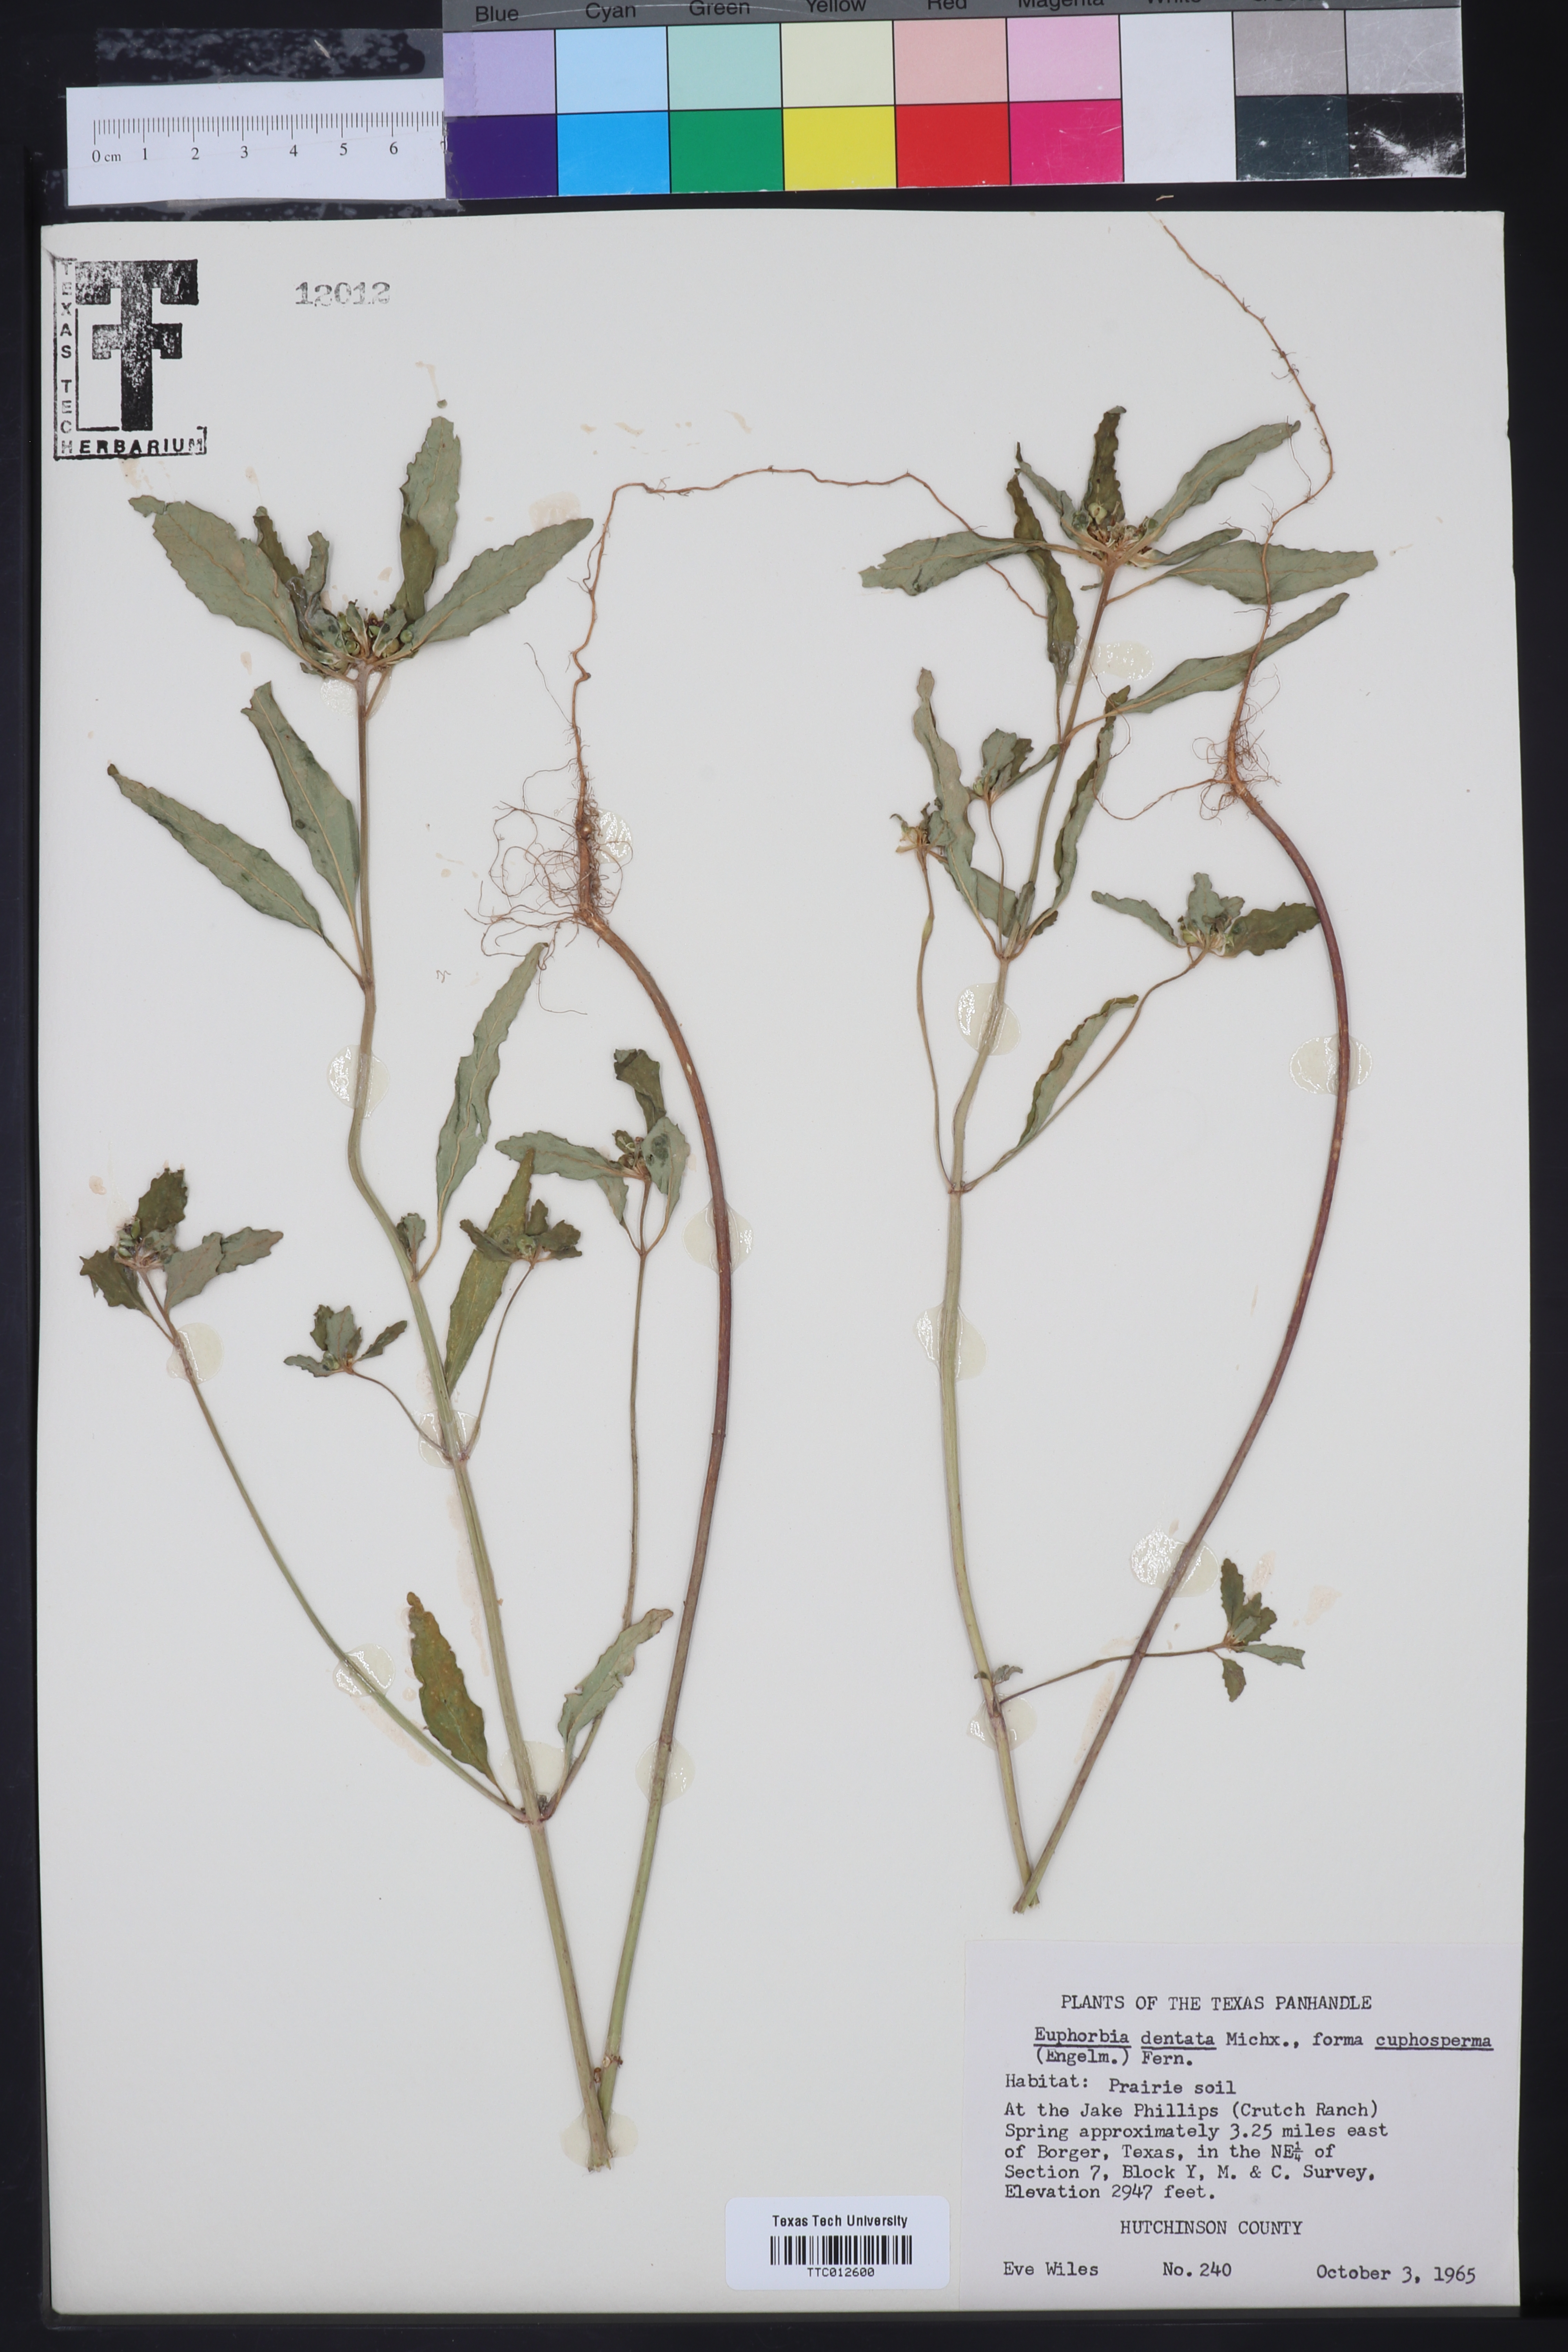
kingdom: Plantae
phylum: Tracheophyta
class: Magnoliopsida
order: Malpighiales
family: Euphorbiaceae
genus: Euphorbia
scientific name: Euphorbia dentata
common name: Dentate spurge
